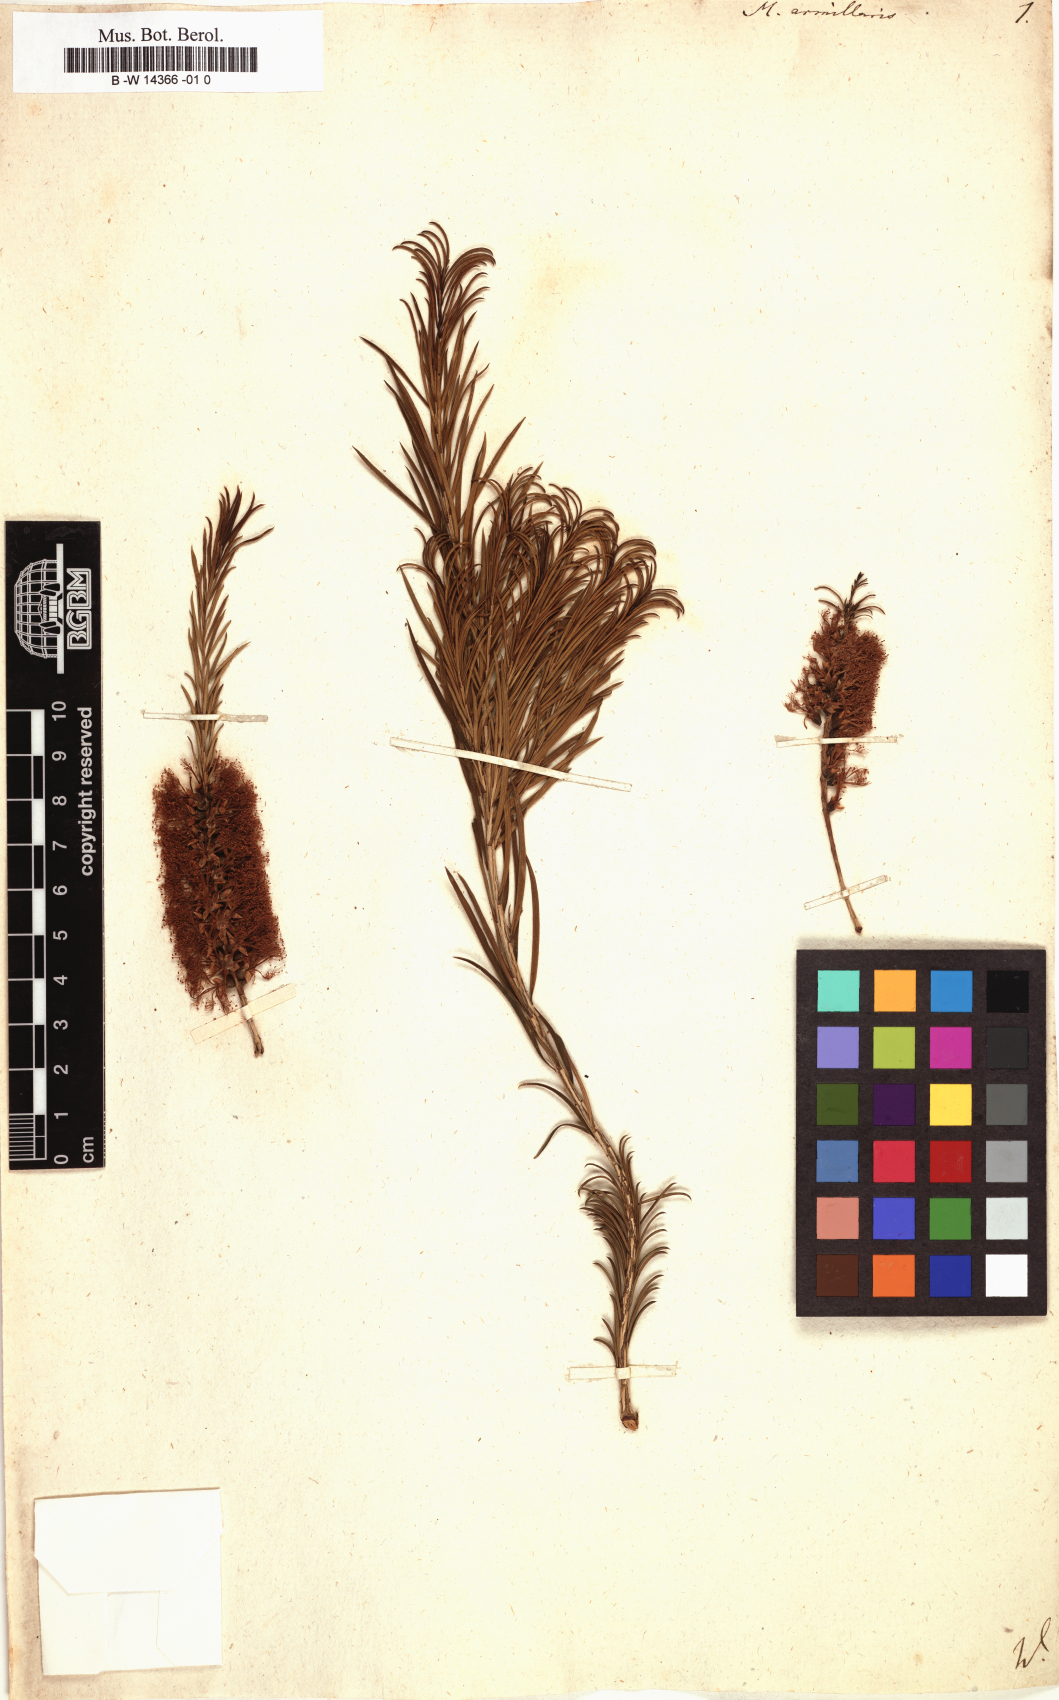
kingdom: Plantae
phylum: Tracheophyta
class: Magnoliopsida
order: Myrtales
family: Myrtaceae
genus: Melaleuca
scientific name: Melaleuca armillaris
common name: Bracelet honey myrtle
